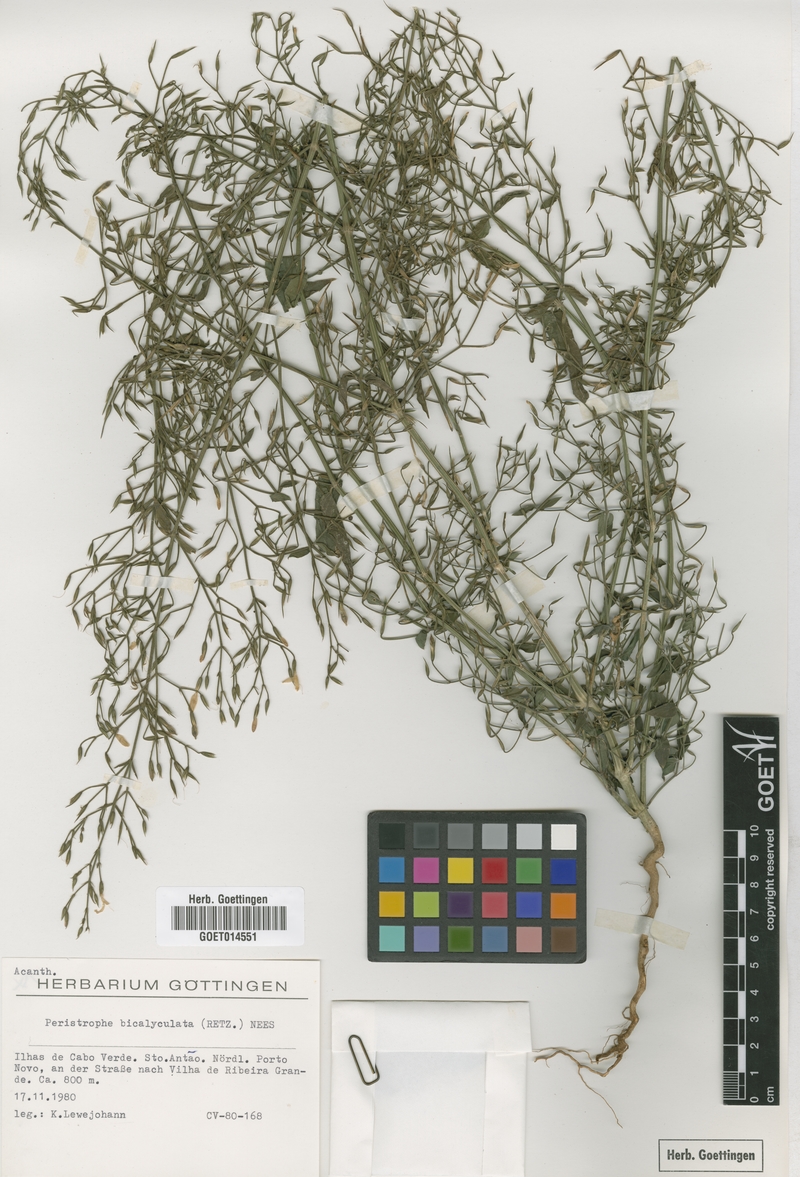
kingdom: Plantae
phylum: Tracheophyta
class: Magnoliopsida
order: Lamiales
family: Acanthaceae
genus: Dicliptera
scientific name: Dicliptera paniculata
